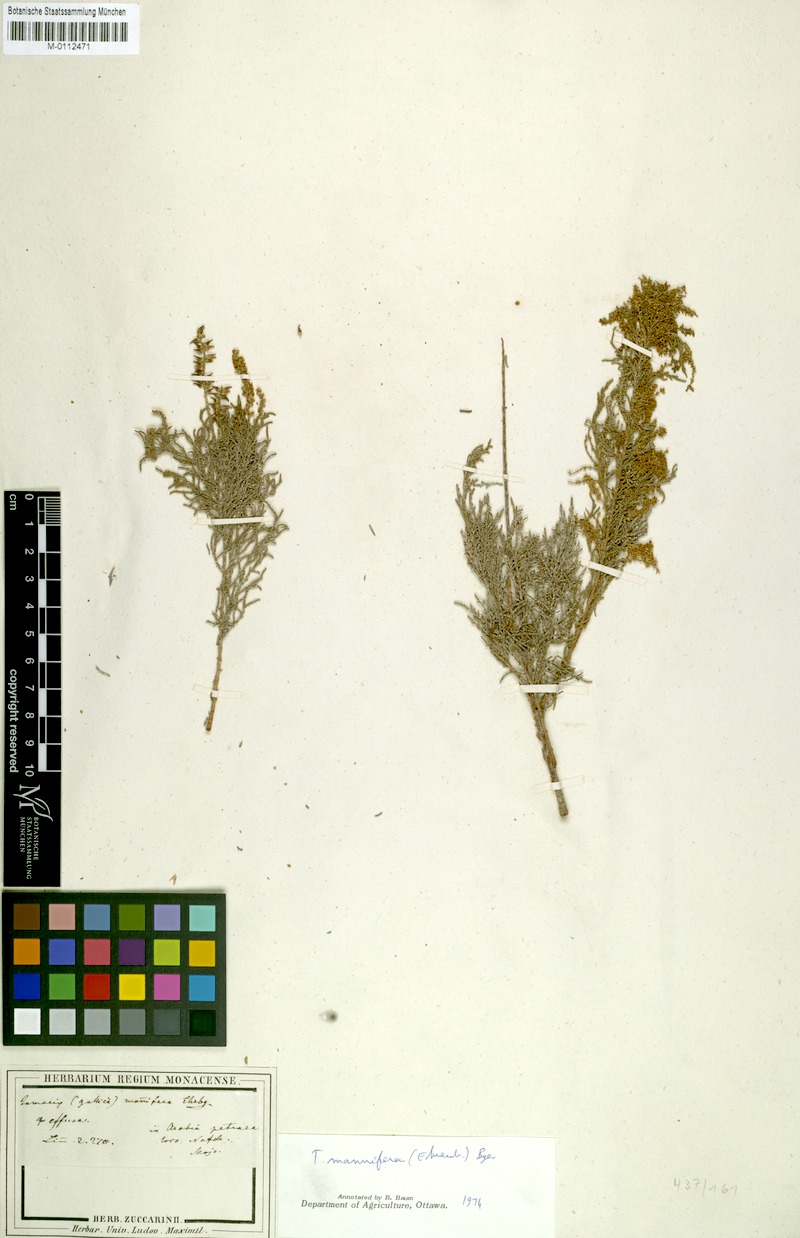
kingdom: Plantae
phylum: Tracheophyta
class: Magnoliopsida
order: Caryophyllales
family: Tamaricaceae
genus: Tamarix
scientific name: Tamarix senegalensis
